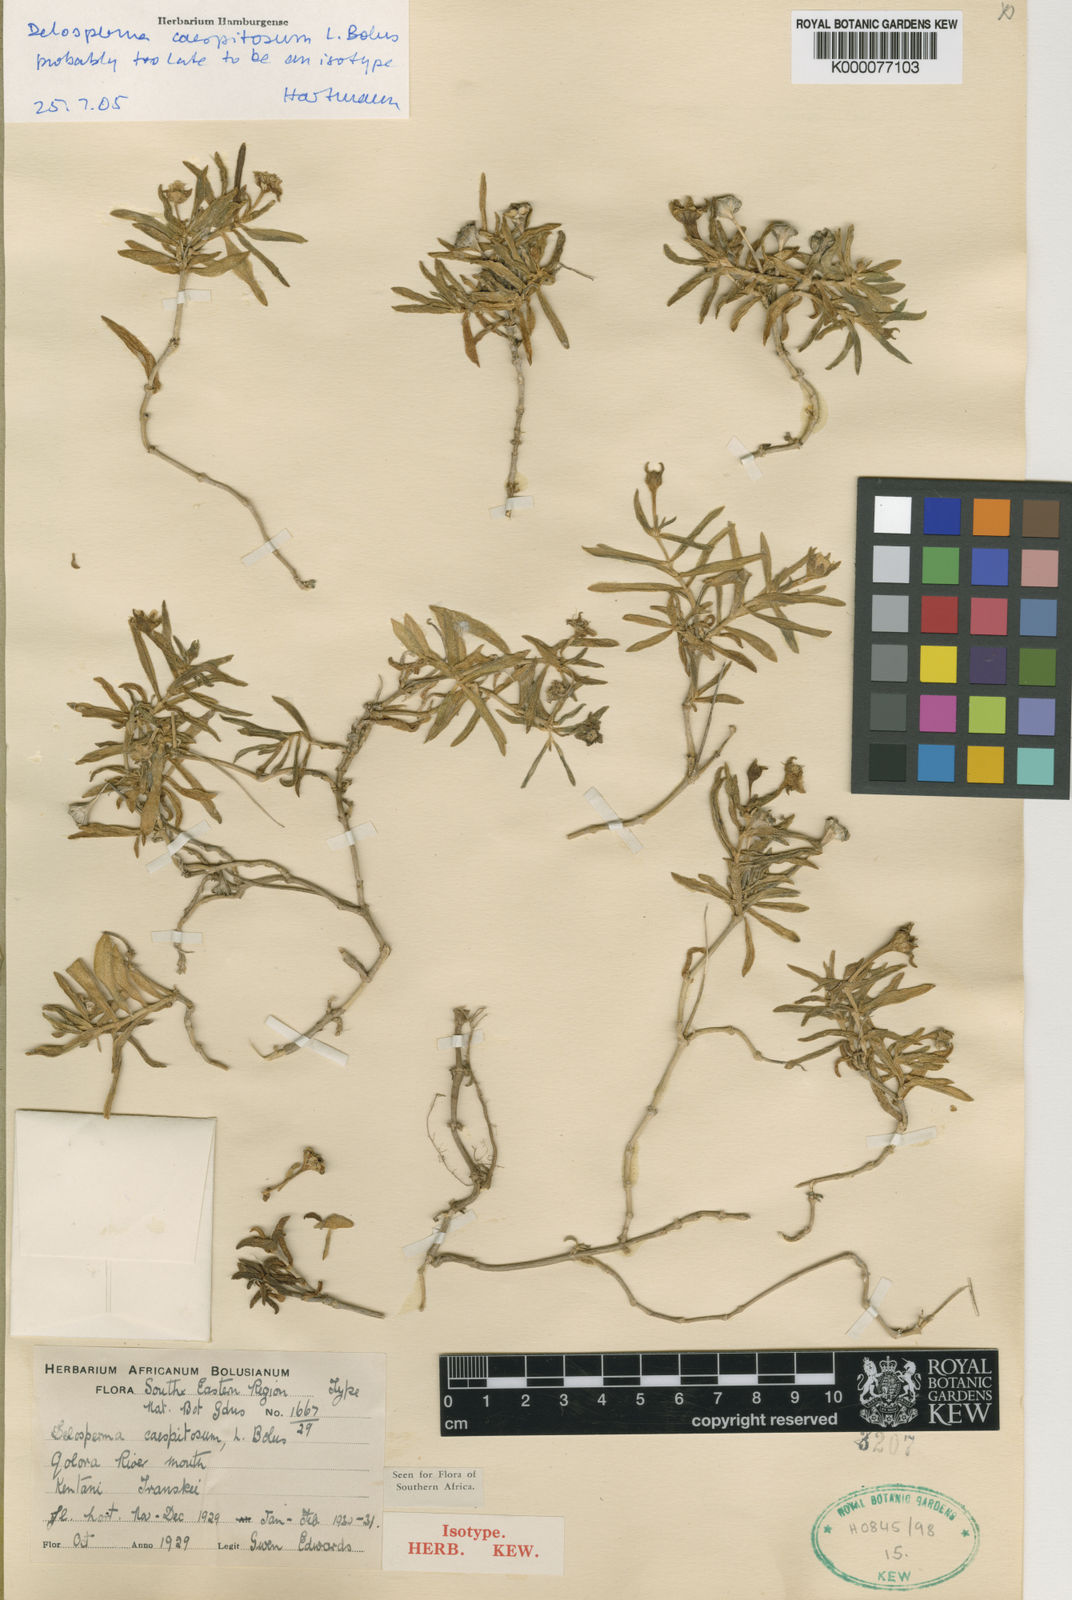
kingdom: Plantae
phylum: Tracheophyta
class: Magnoliopsida
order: Caryophyllales
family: Aizoaceae
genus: Delosperma
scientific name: Delosperma caespitosum
